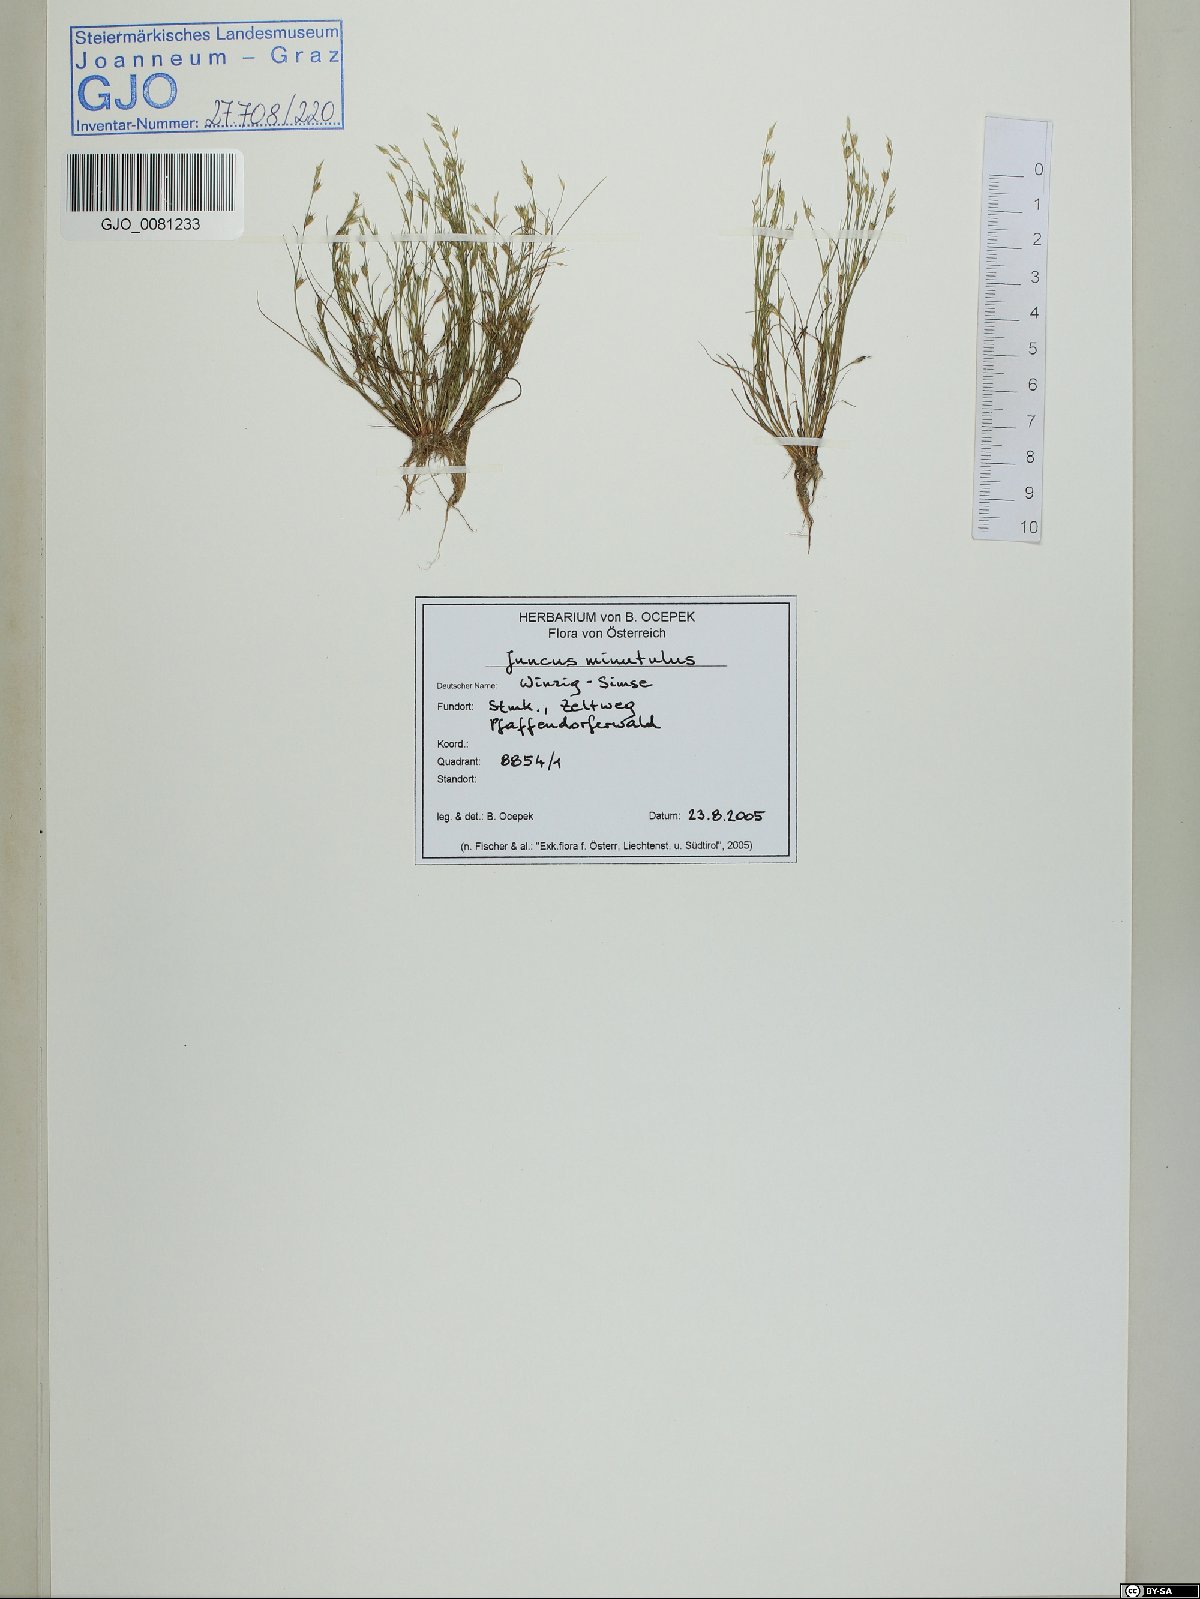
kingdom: Plantae
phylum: Tracheophyta
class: Liliopsida
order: Poales
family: Juncaceae
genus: Juncus
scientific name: Juncus minutulus
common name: Minute rush
